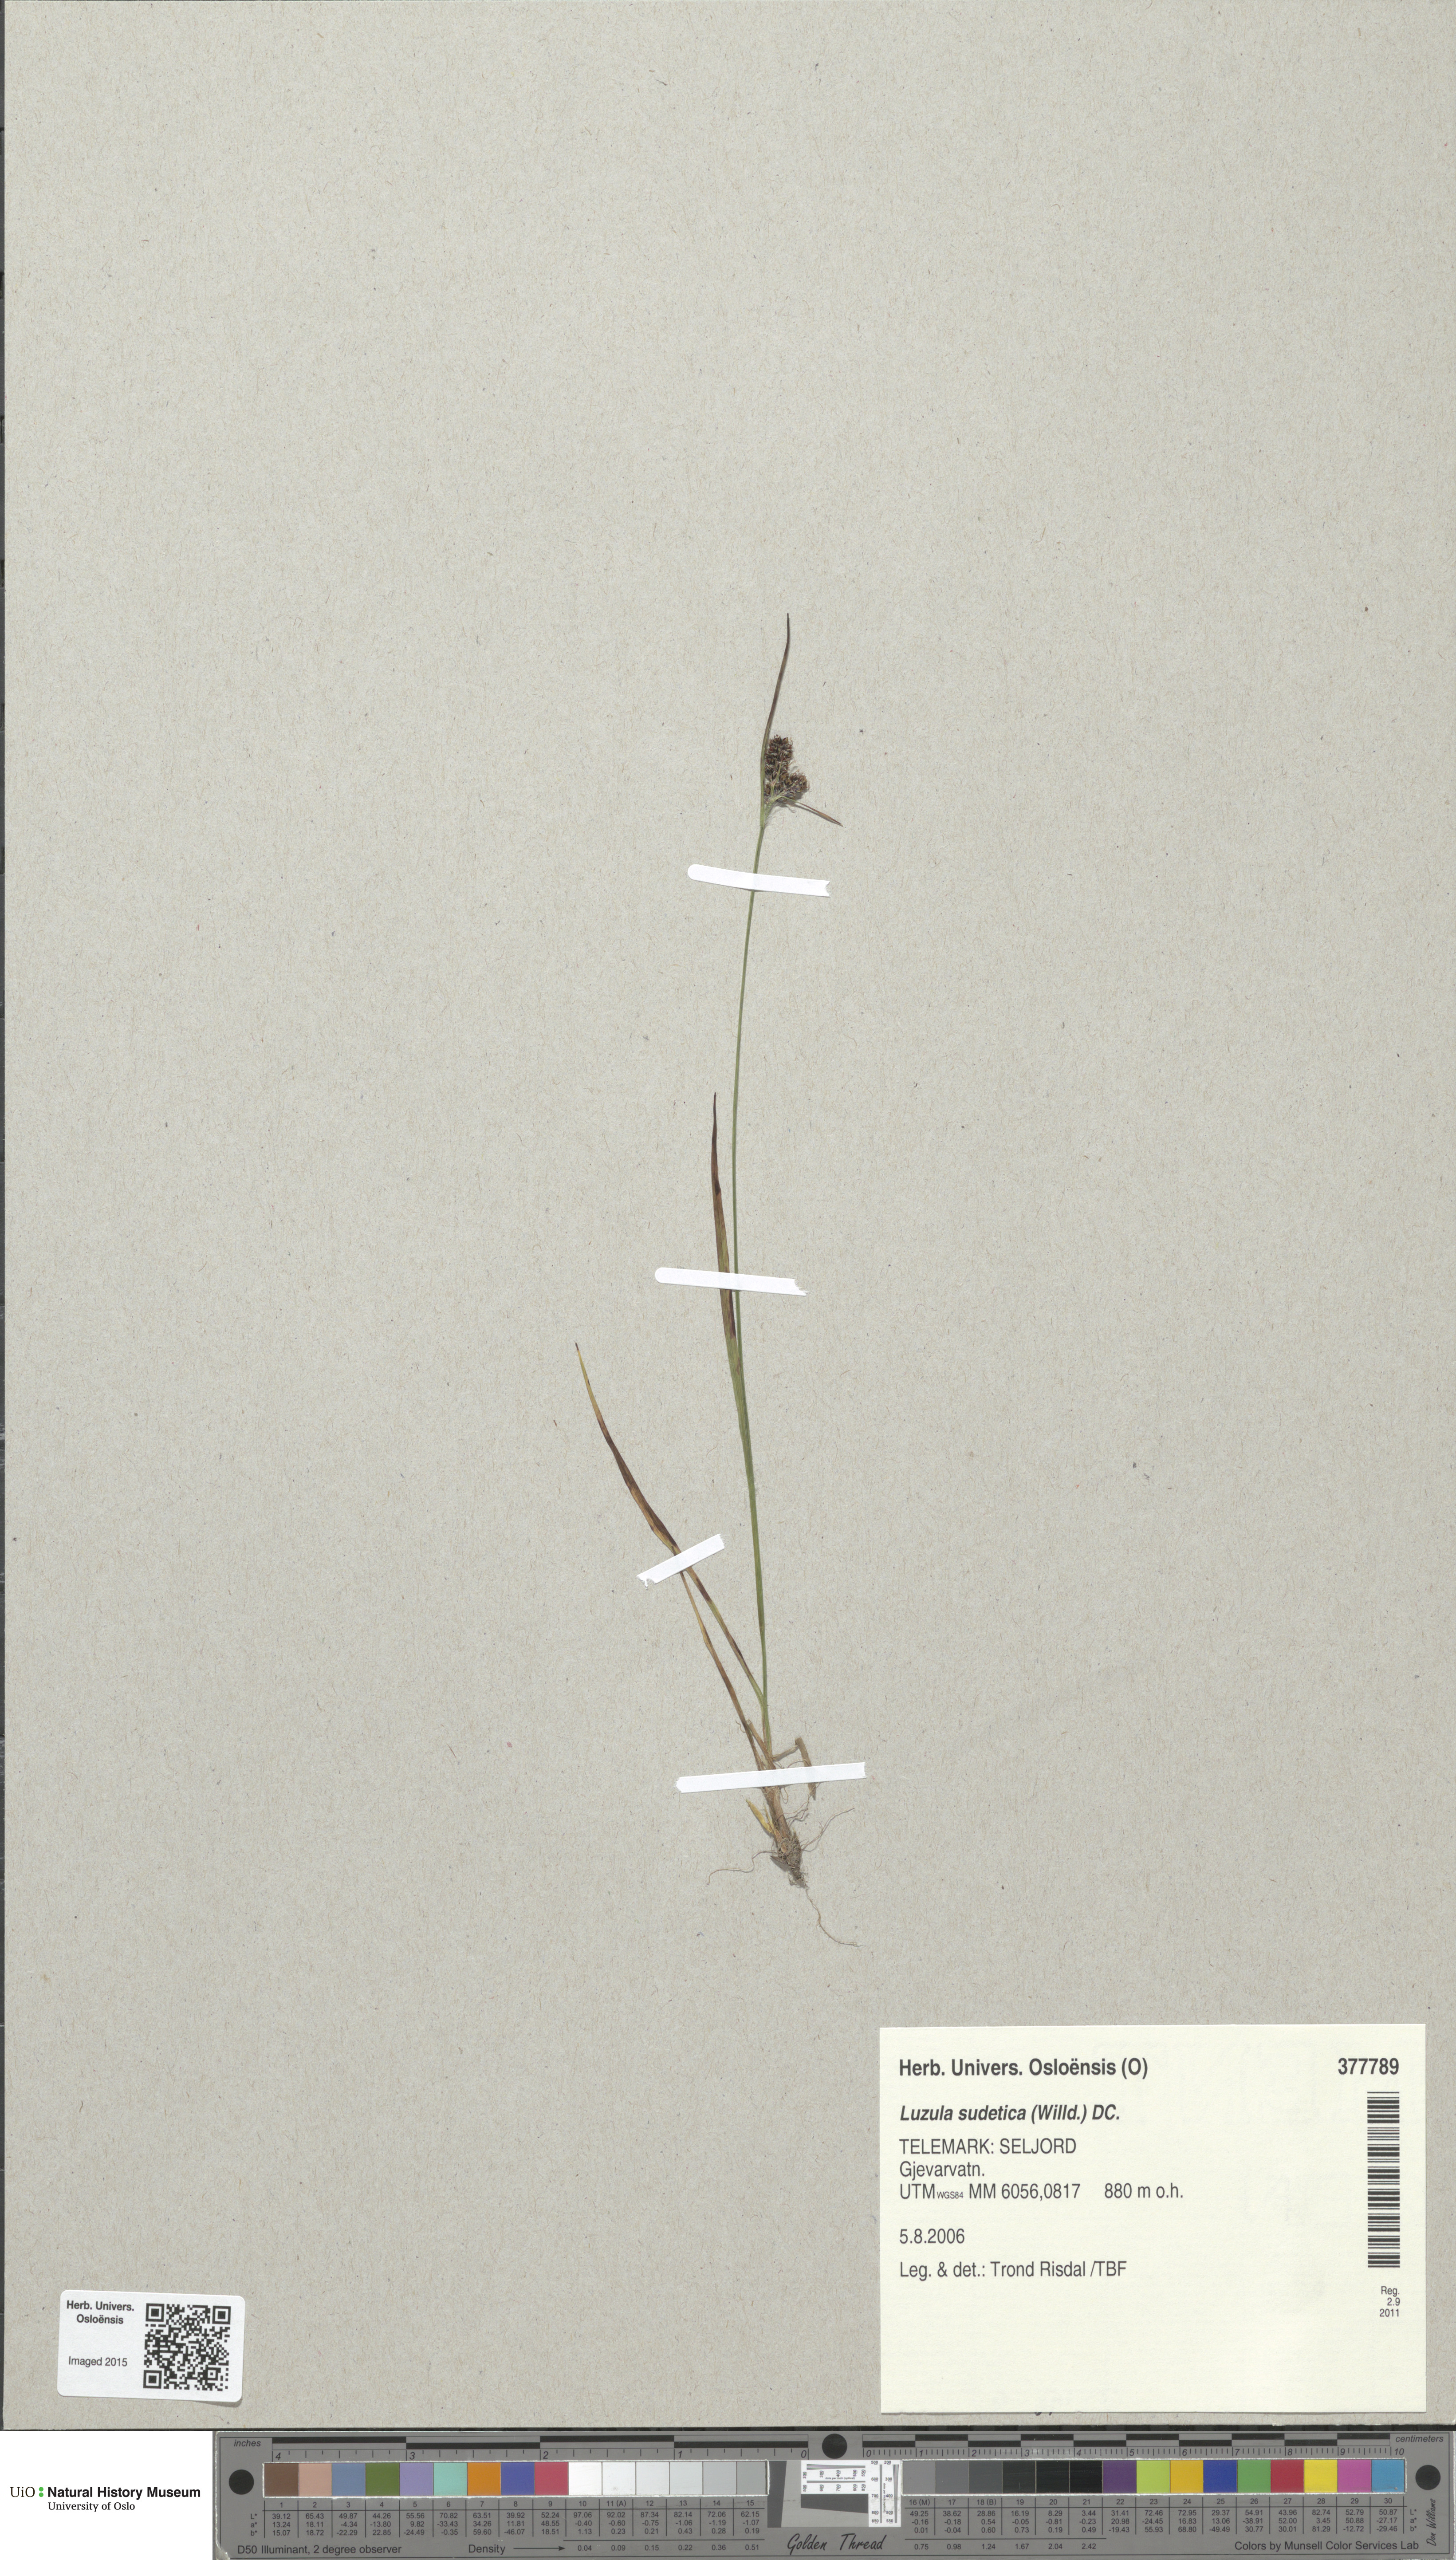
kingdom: Plantae
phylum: Tracheophyta
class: Liliopsida
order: Poales
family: Juncaceae
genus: Luzula
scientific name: Luzula sudetica
